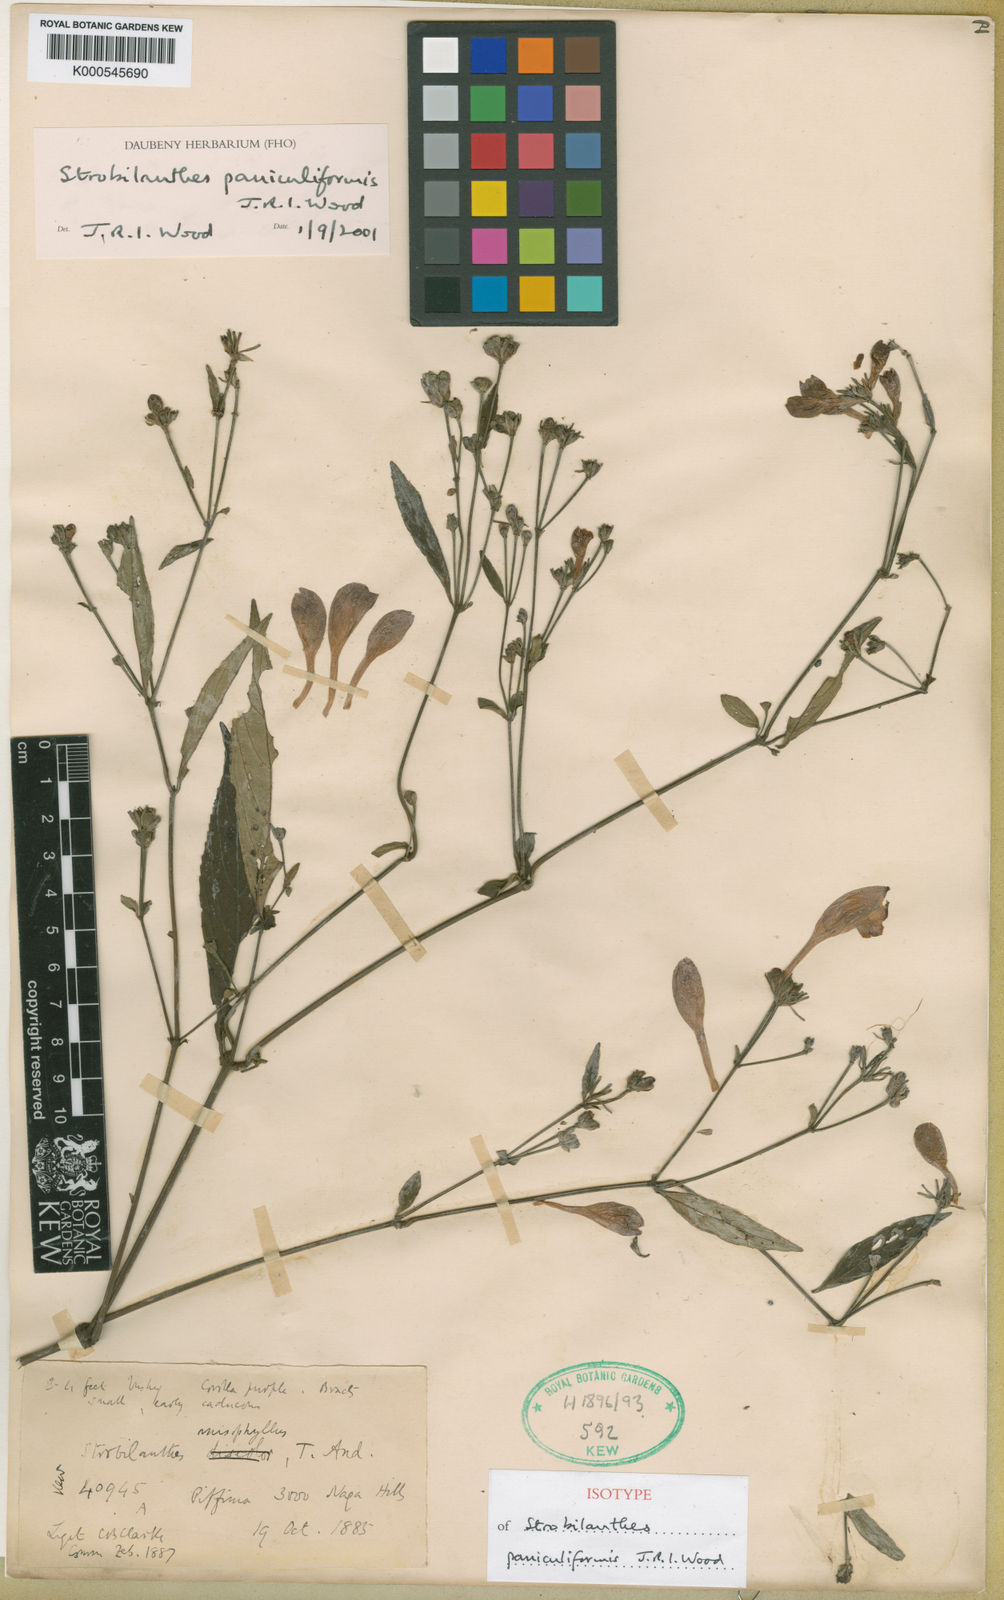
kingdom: Plantae
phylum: Tracheophyta
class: Magnoliopsida
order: Lamiales
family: Acanthaceae
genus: Strobilanthes
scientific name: Strobilanthes paniculiformis
